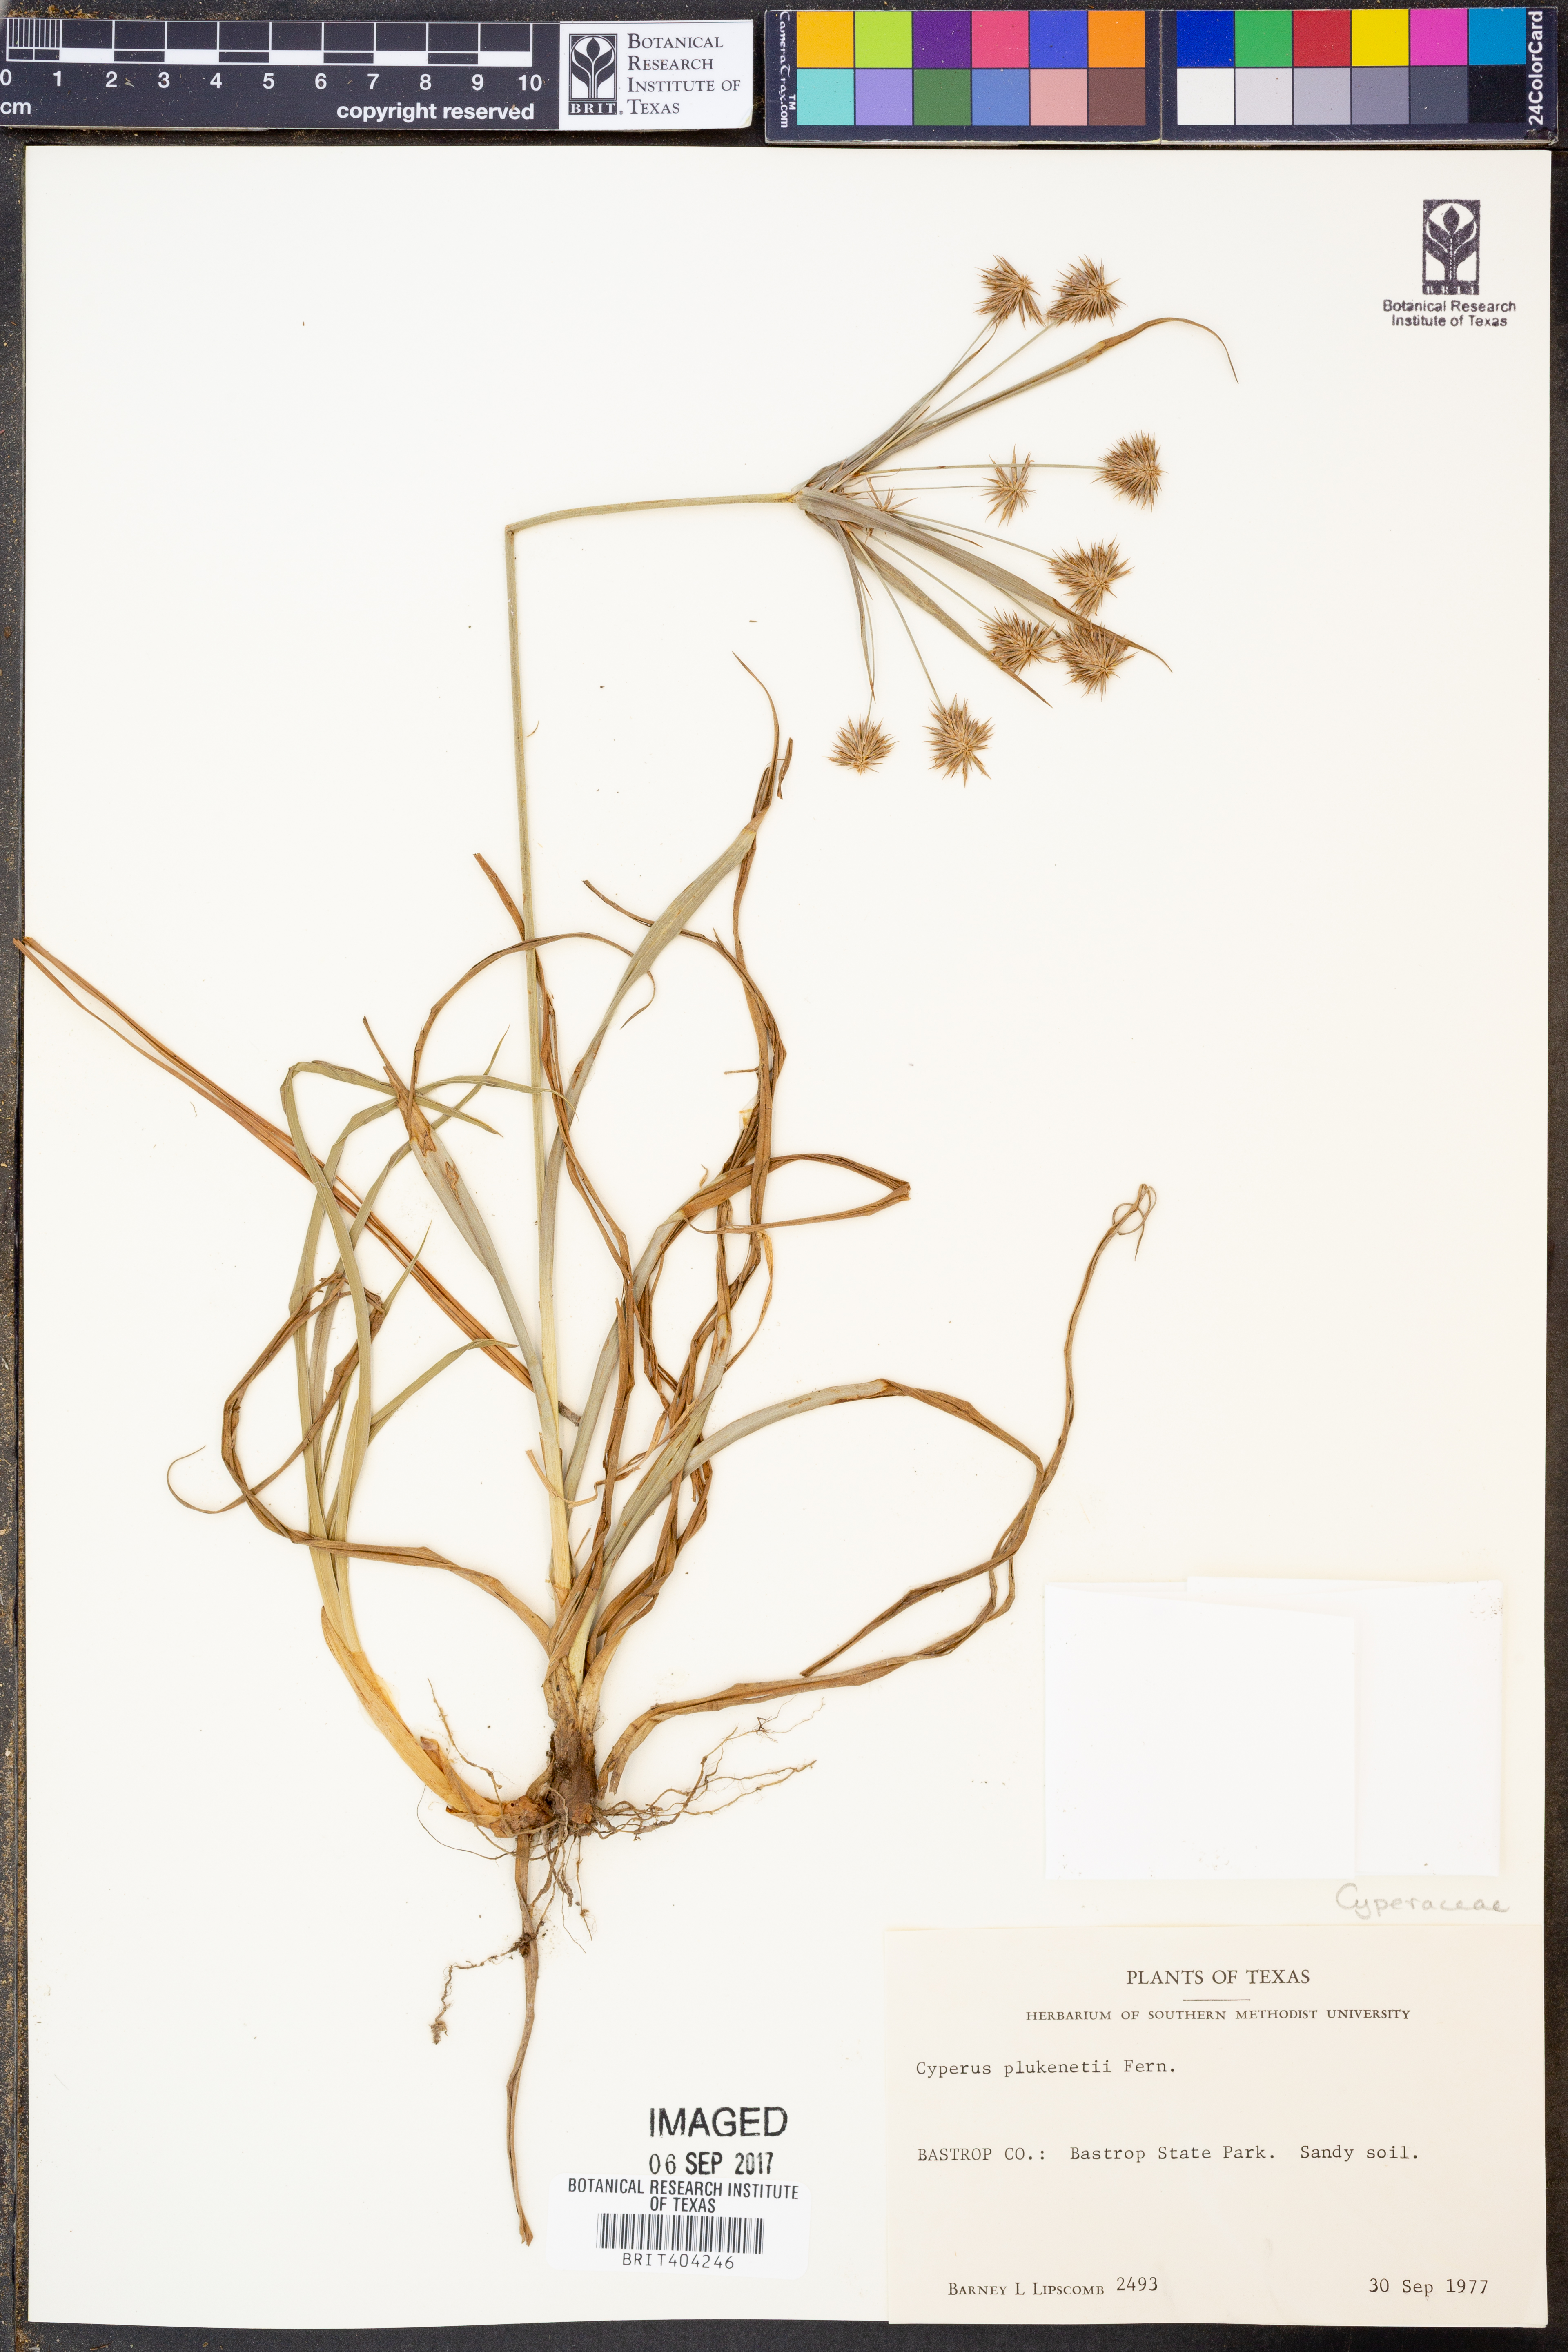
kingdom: Plantae
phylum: Tracheophyta
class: Liliopsida
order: Poales
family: Cyperaceae
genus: Cyperus
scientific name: Cyperus plukenetii
